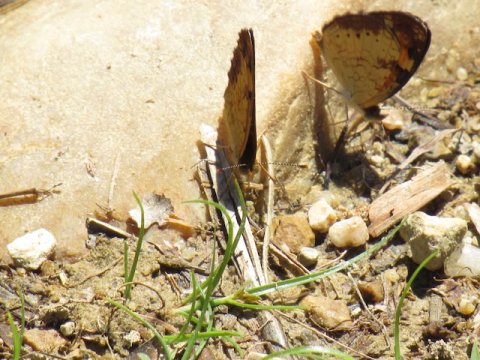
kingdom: Animalia
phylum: Arthropoda
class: Insecta
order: Lepidoptera
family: Nymphalidae
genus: Phyciodes
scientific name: Phyciodes tharos
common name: Pearl Crescent
